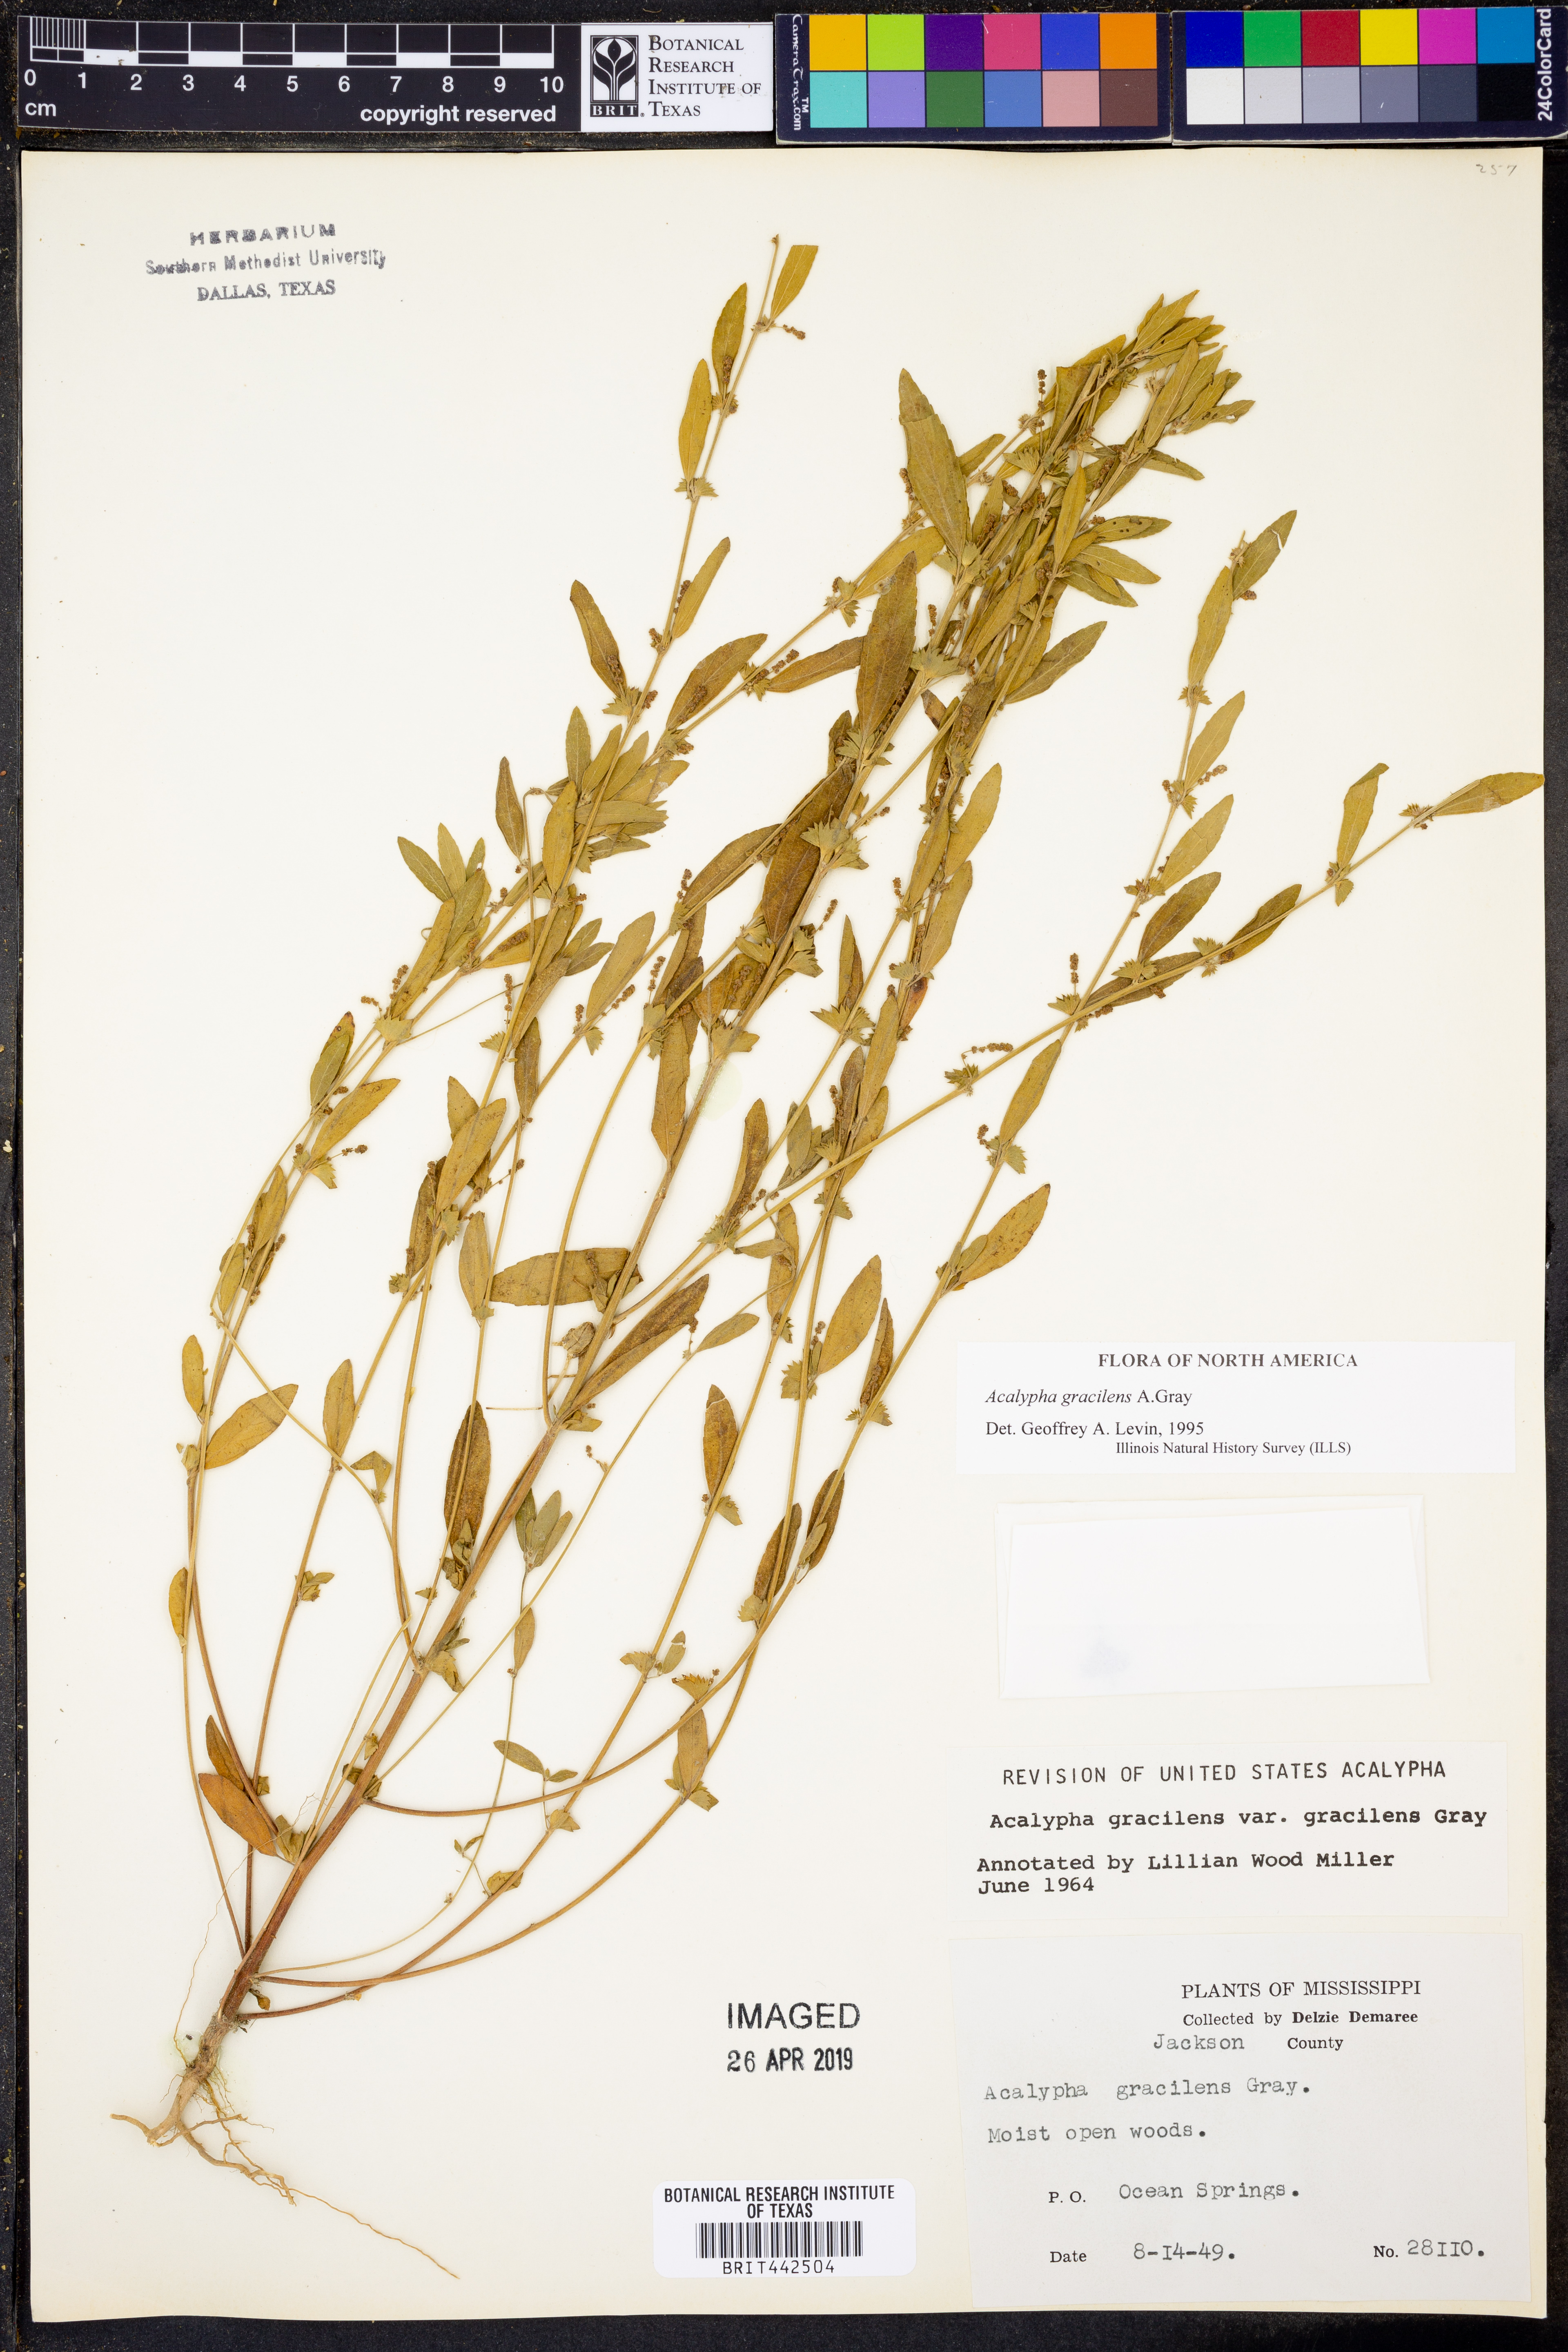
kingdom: Plantae
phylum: Tracheophyta
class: Magnoliopsida
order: Malpighiales
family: Euphorbiaceae
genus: Acalypha
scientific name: Acalypha gracilens
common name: Slender three-seeded mercury
